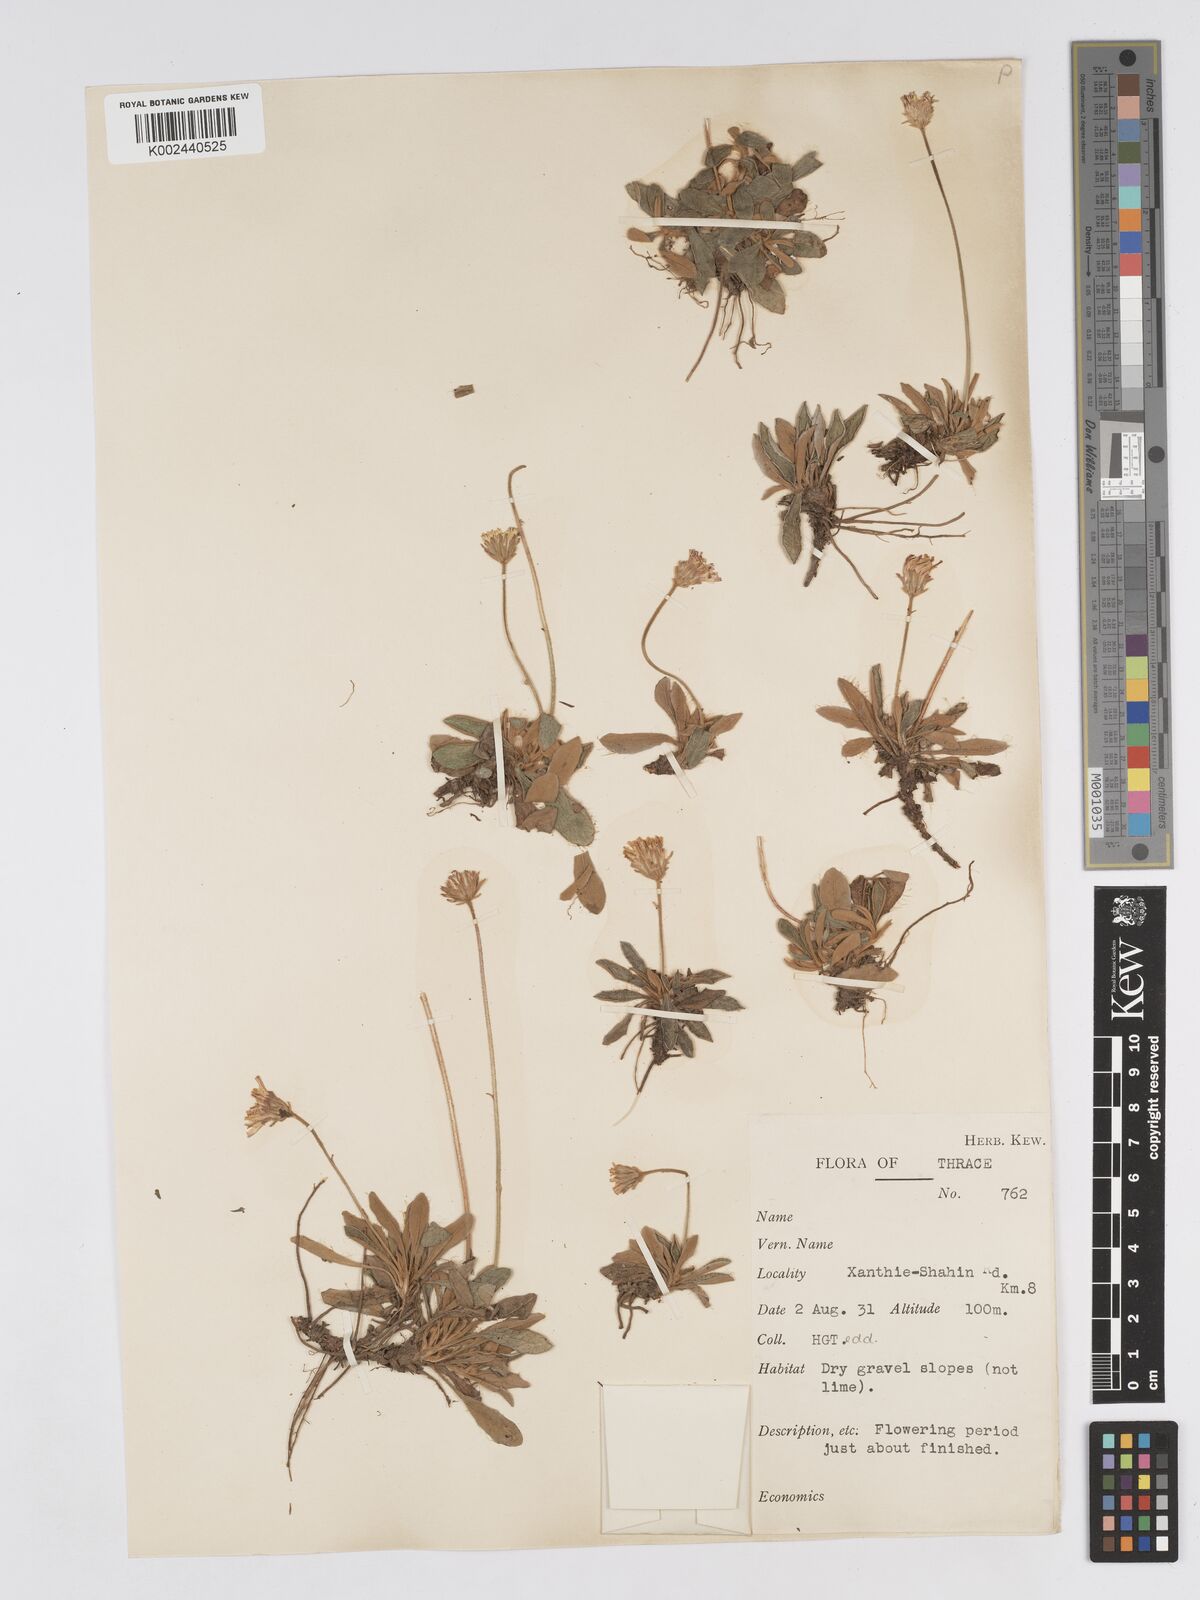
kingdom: Plantae
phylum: Tracheophyta
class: Magnoliopsida
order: Asterales
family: Asteraceae
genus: Pilosella
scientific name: Pilosella velutina
